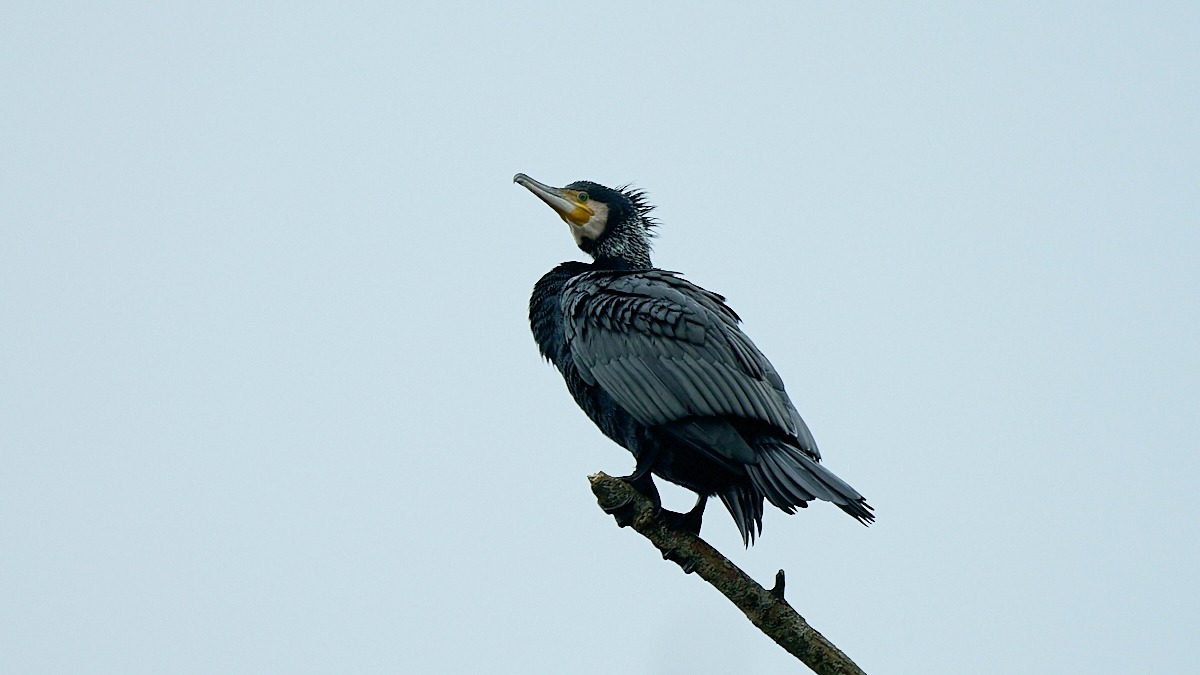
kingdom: Animalia
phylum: Chordata
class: Aves
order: Suliformes
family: Phalacrocoracidae
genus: Phalacrocorax
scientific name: Phalacrocorax carbo
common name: Skarv
